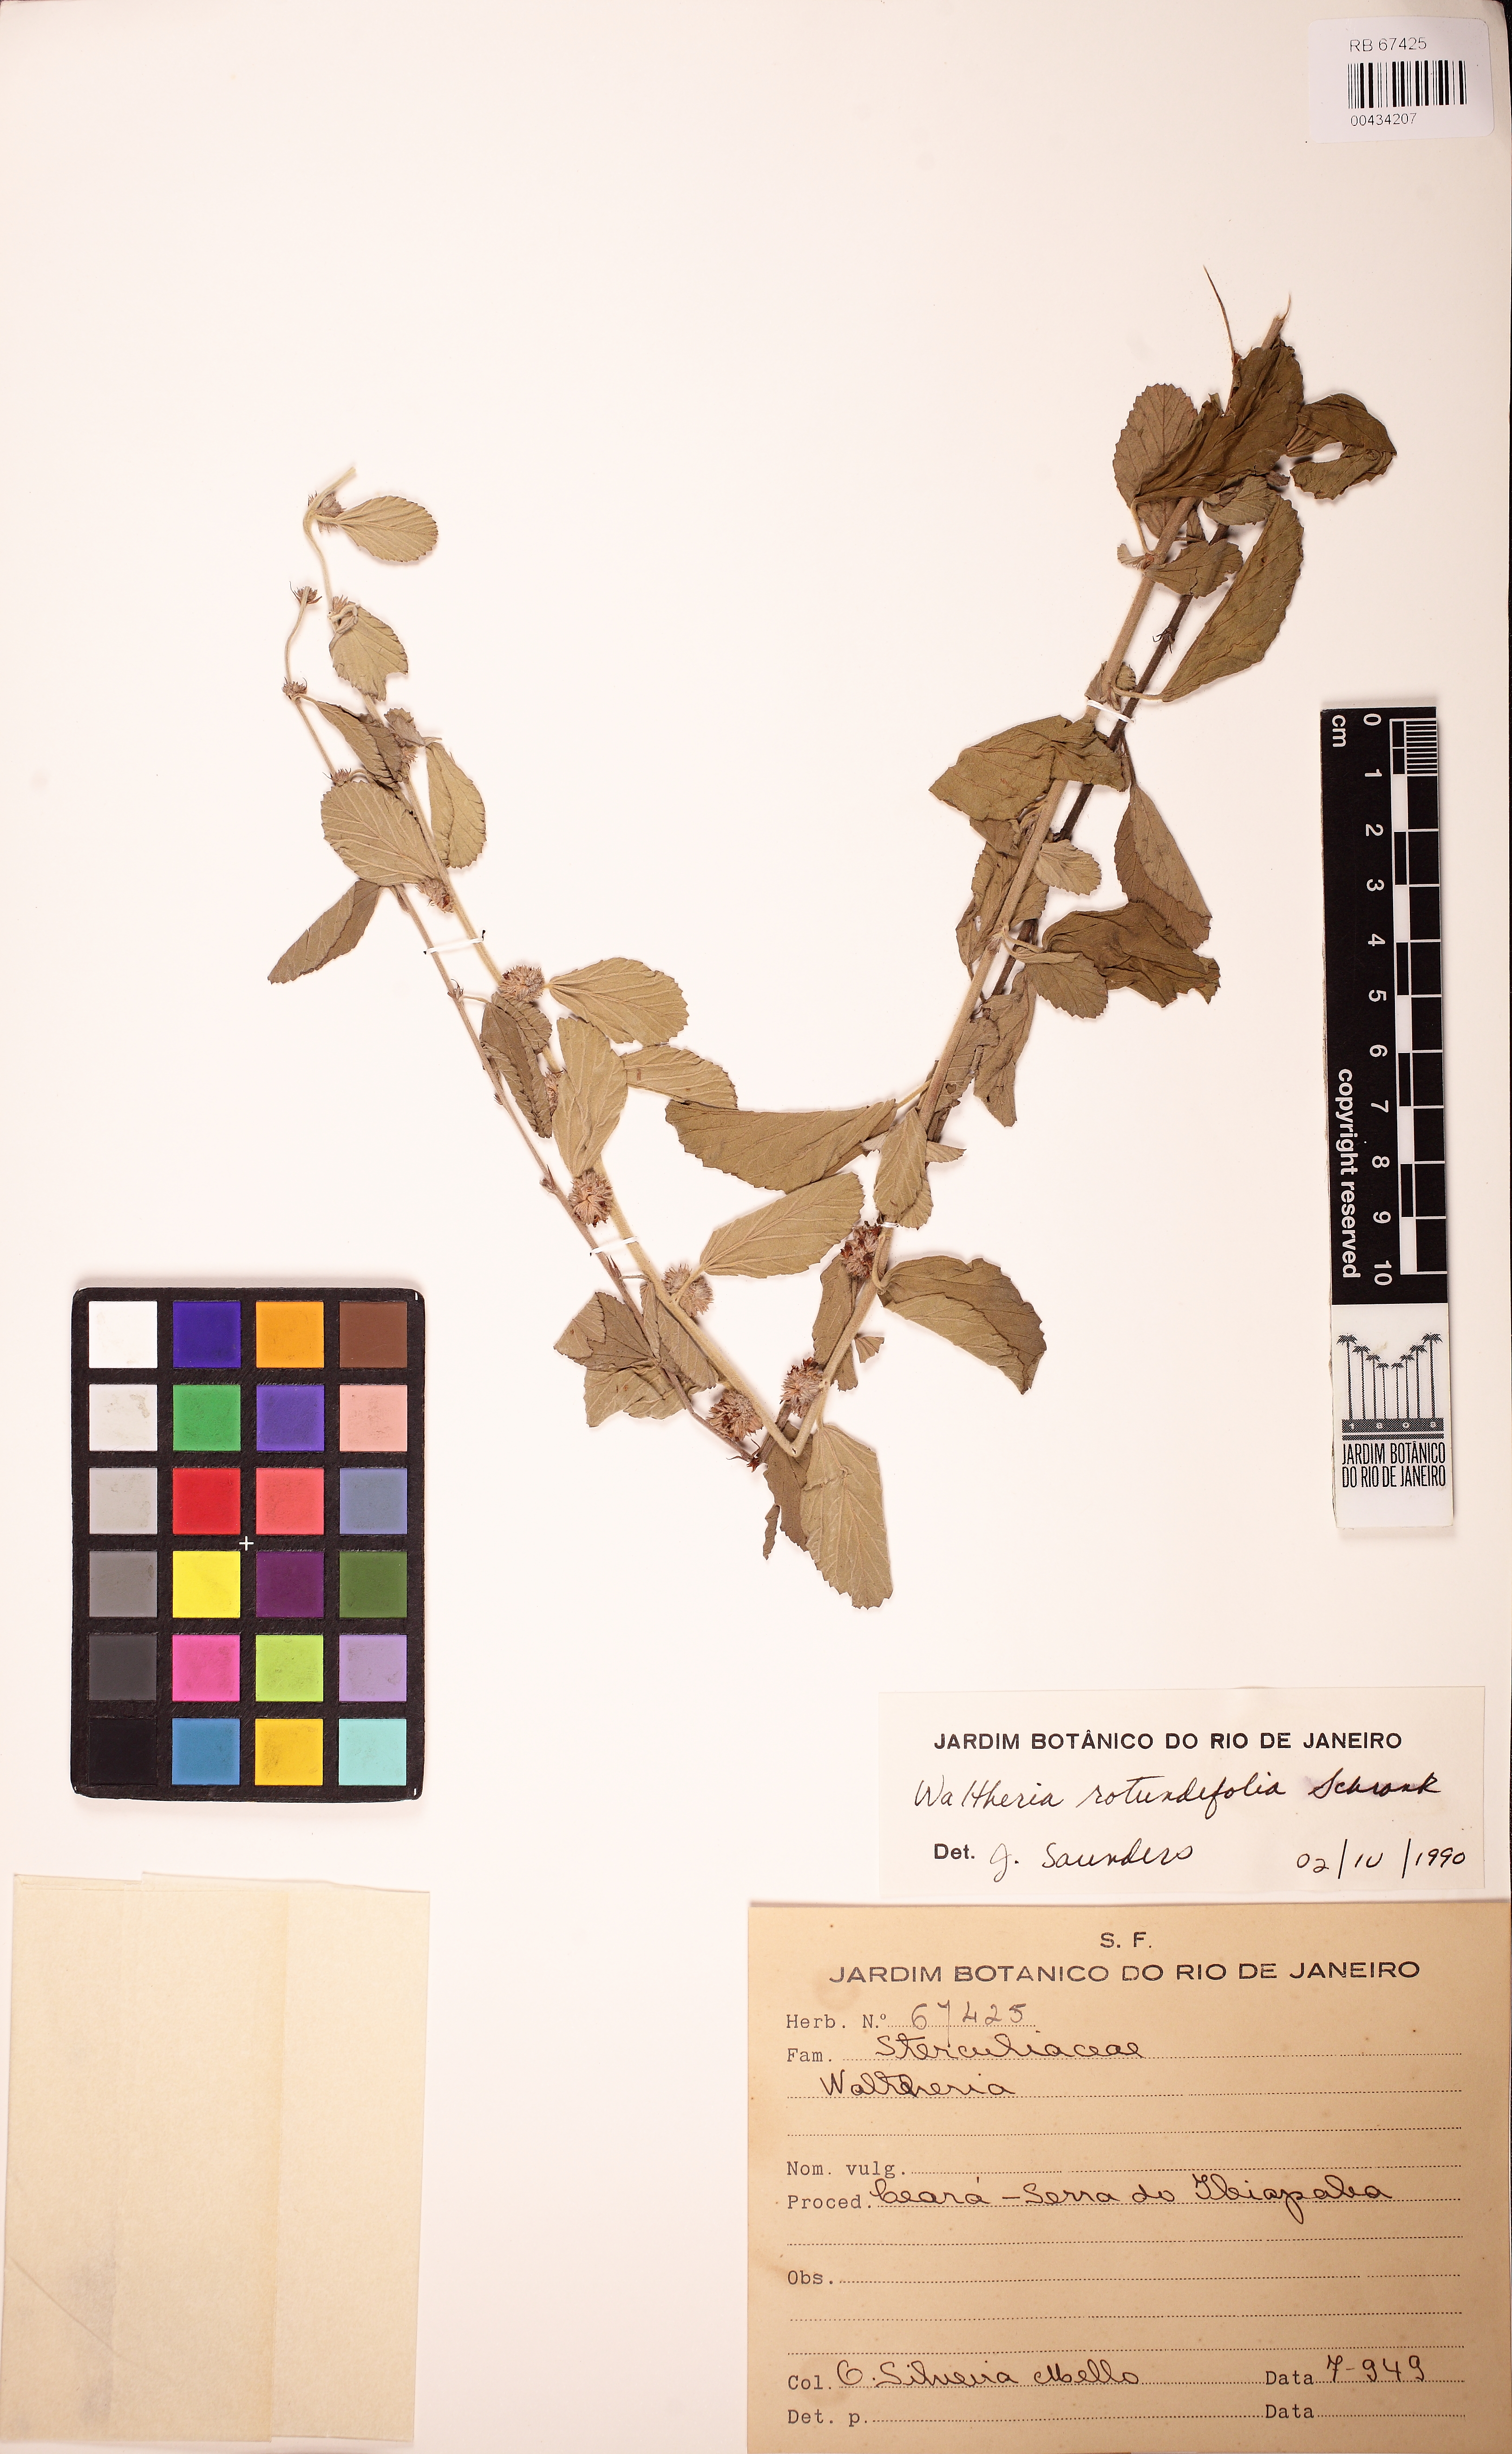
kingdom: Plantae
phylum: Tracheophyta
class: Magnoliopsida
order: Malvales
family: Malvaceae
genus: Waltheria
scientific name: Waltheria rotundifolia
